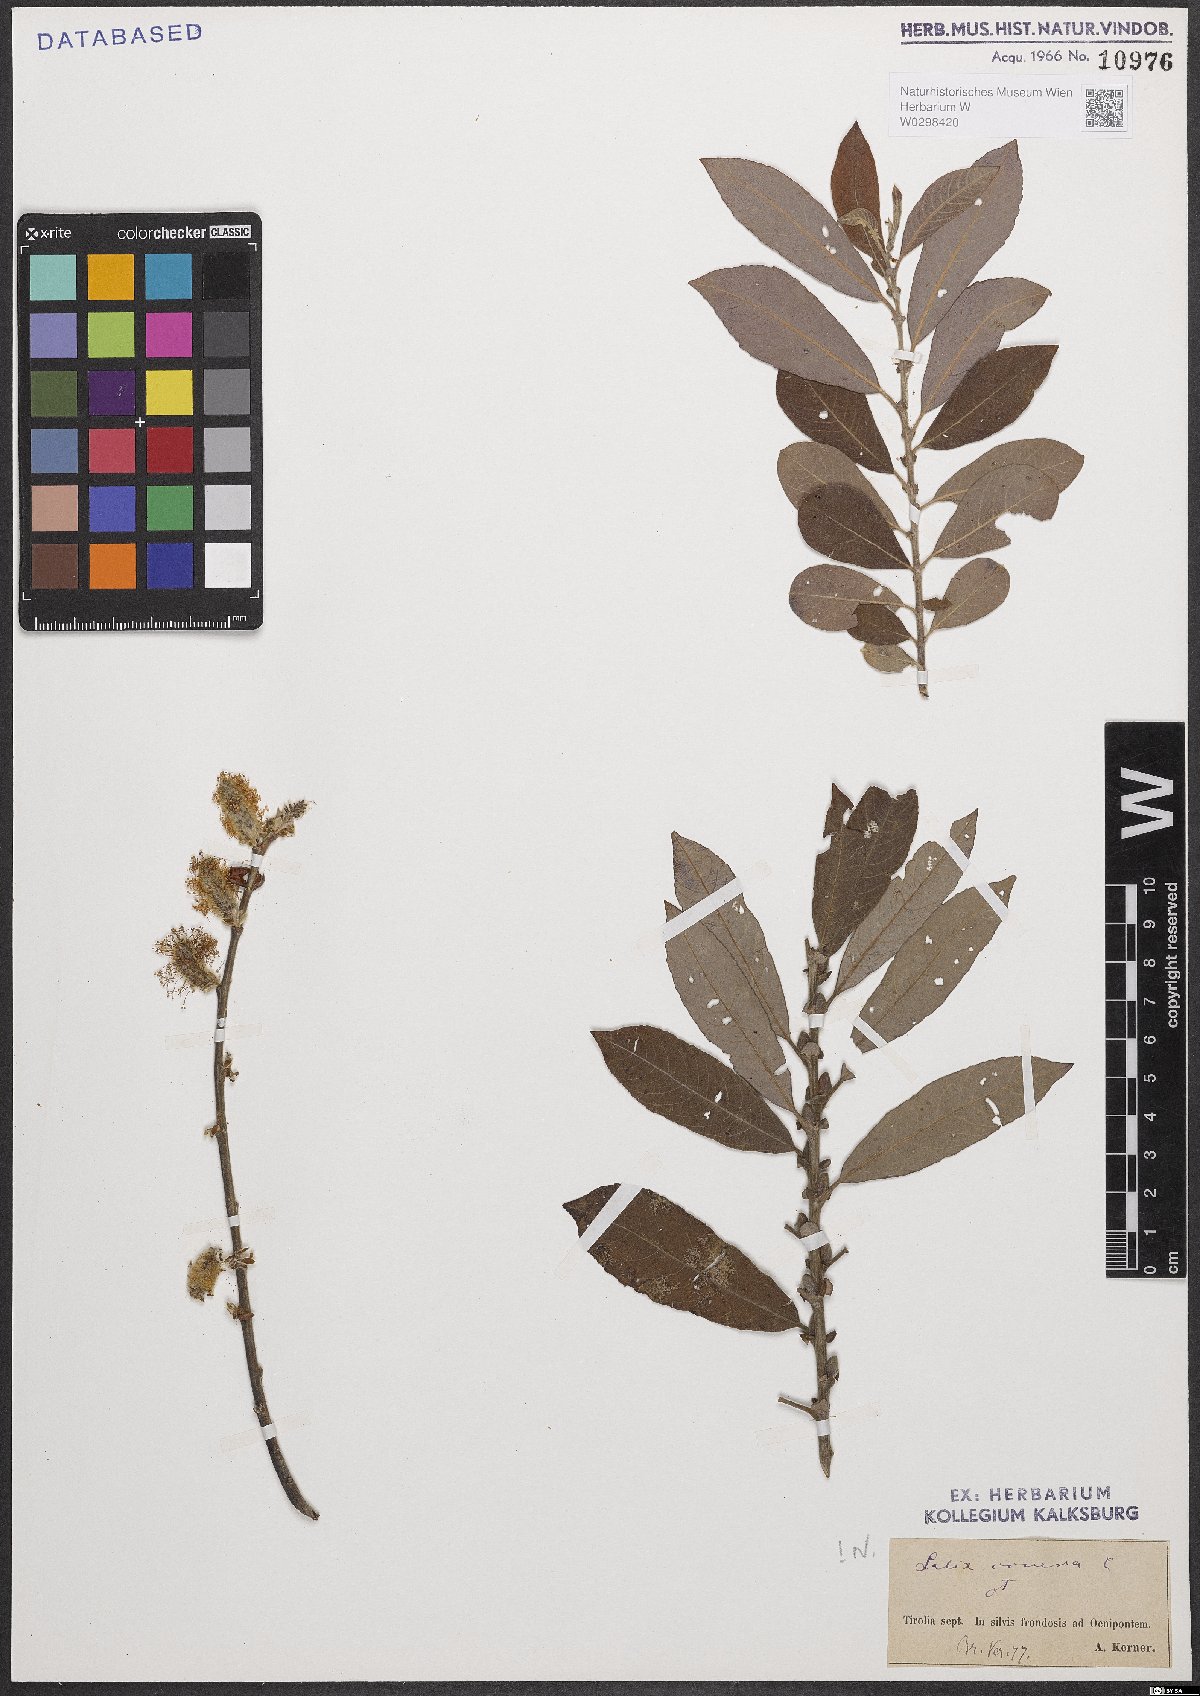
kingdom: Plantae
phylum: Tracheophyta
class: Magnoliopsida
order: Malpighiales
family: Salicaceae
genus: Salix
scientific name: Salix cinerea
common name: Common sallow
